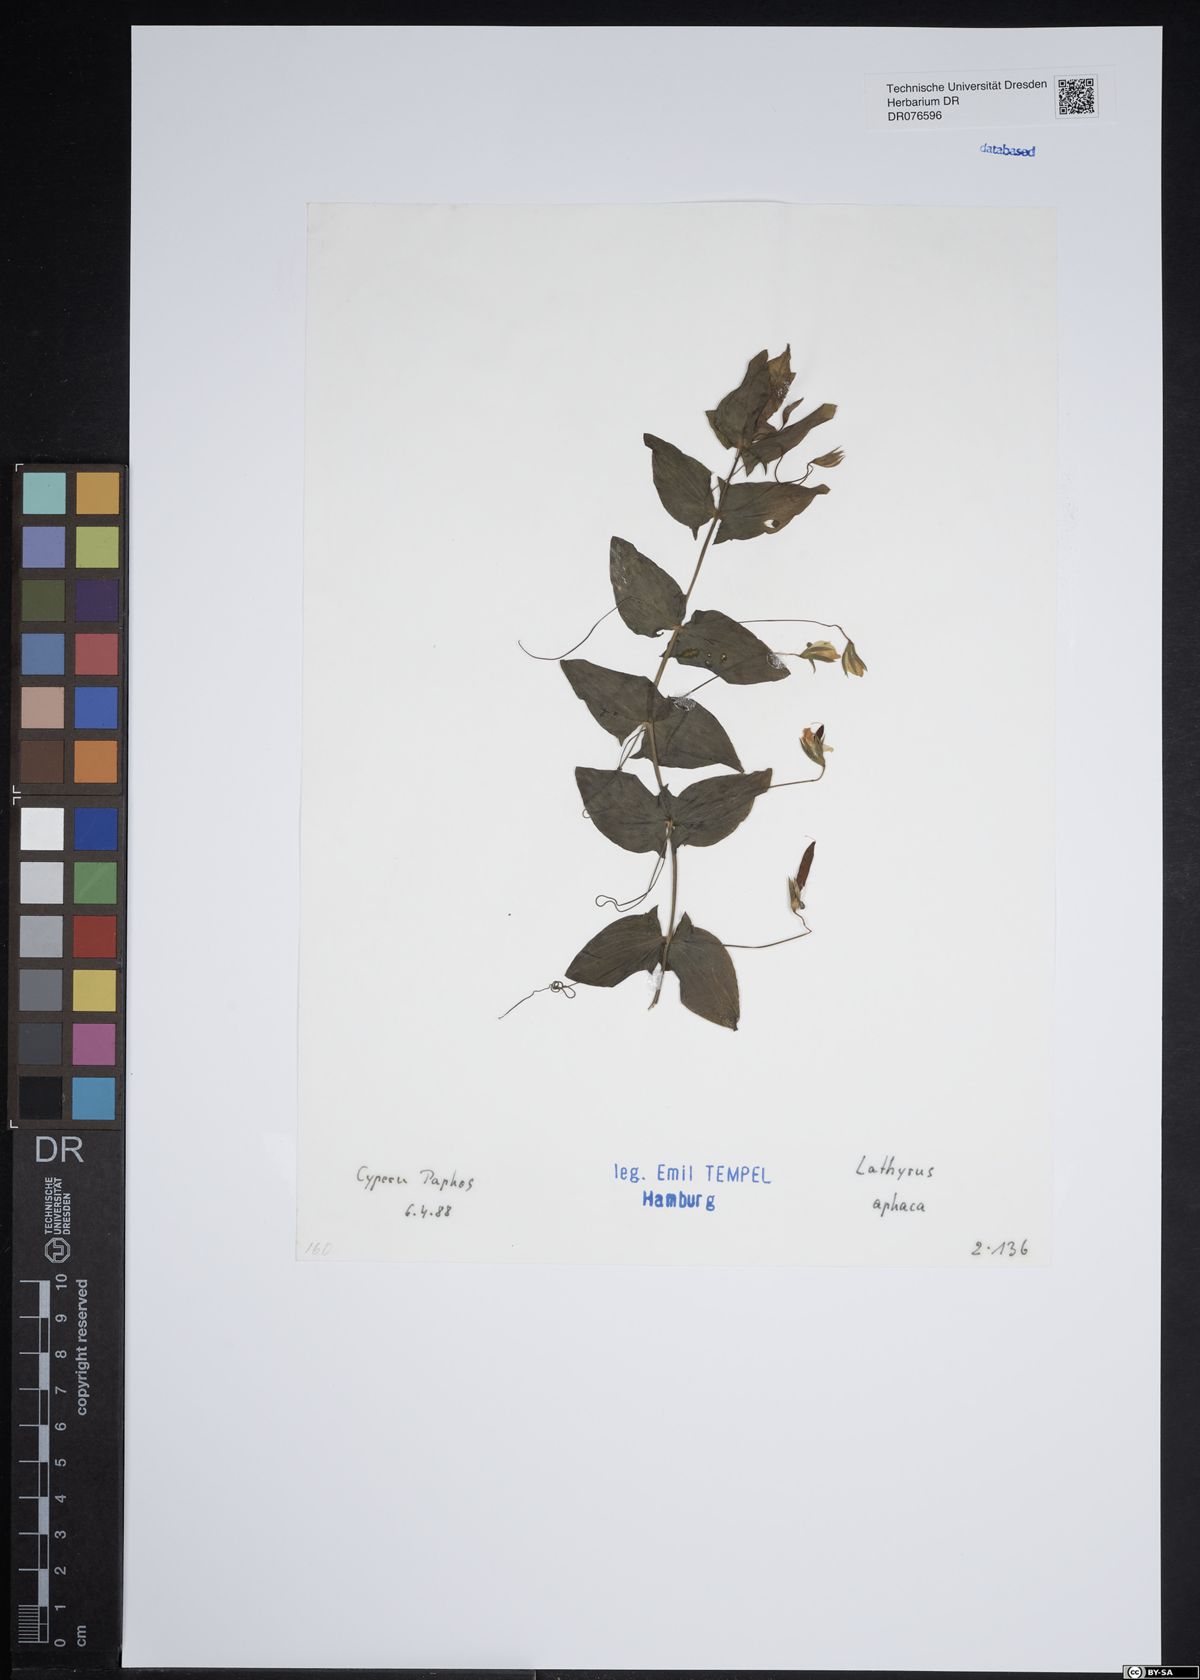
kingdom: Plantae
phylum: Tracheophyta
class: Magnoliopsida
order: Fabales
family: Fabaceae
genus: Lathyrus
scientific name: Lathyrus aphaca
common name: Yellow vetchling
